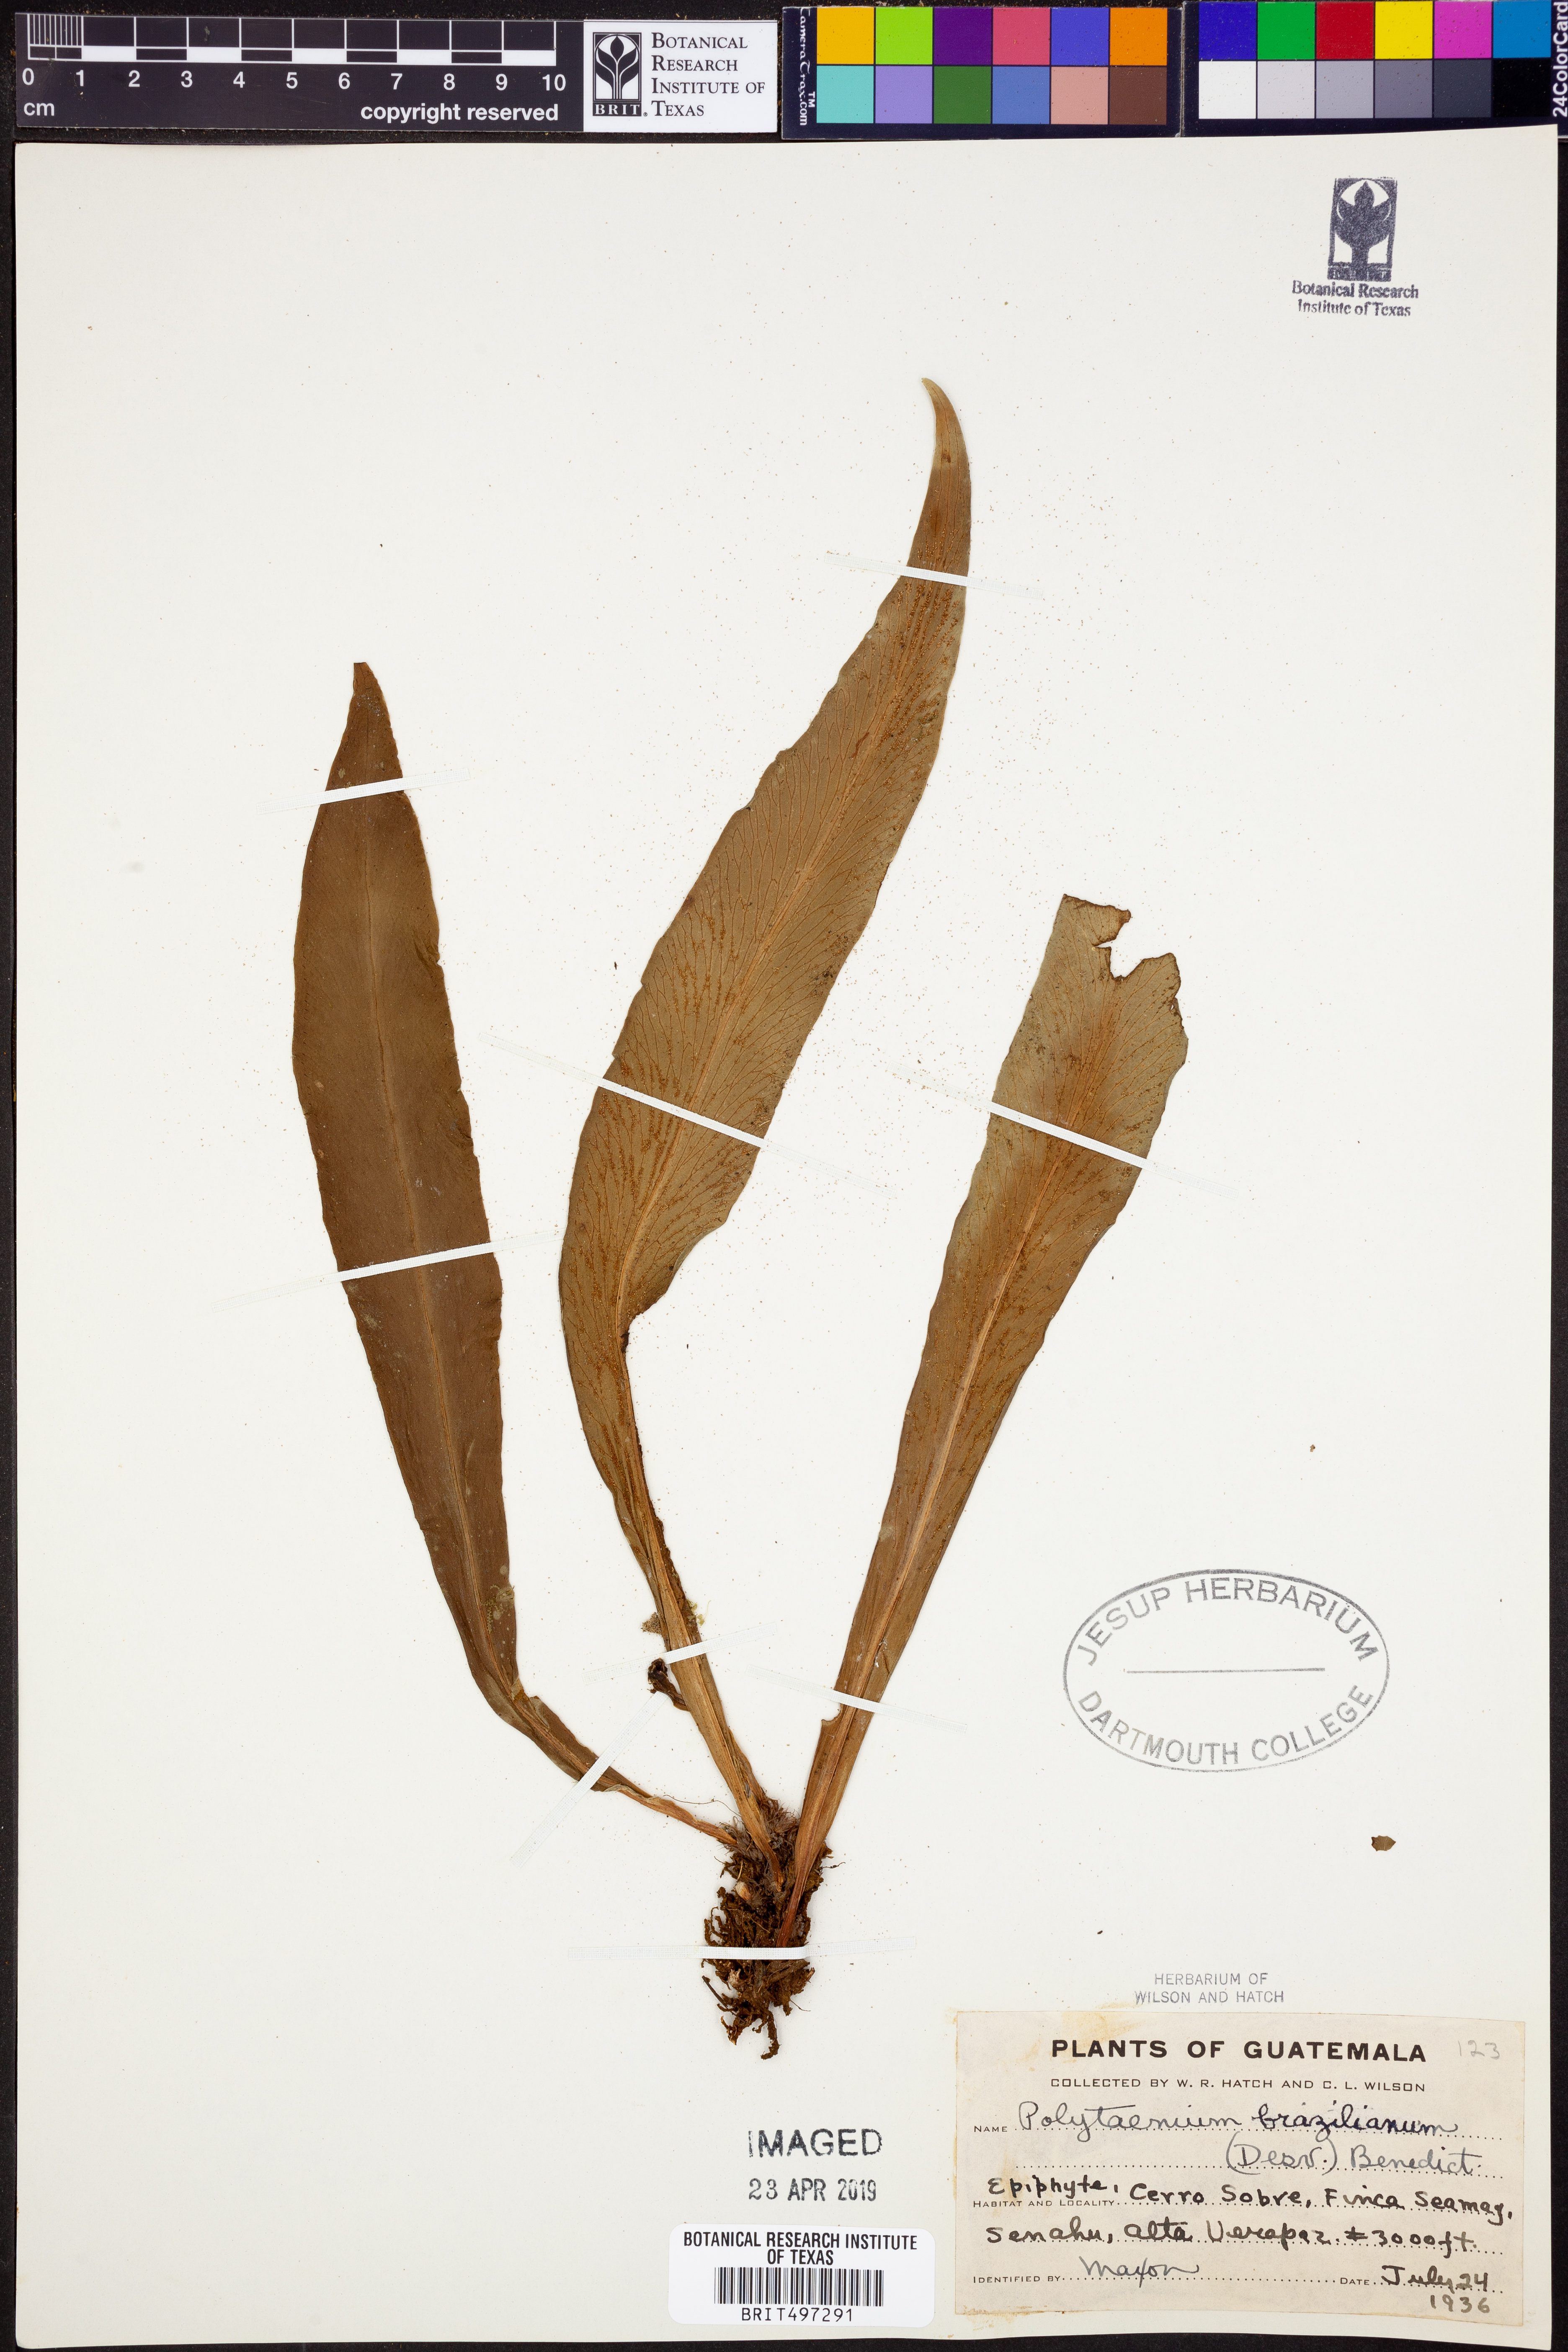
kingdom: Plantae
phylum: Tracheophyta
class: Polypodiopsida
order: Polypodiales
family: Pteridaceae
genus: Polytaenium
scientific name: Polytaenium cajenense
